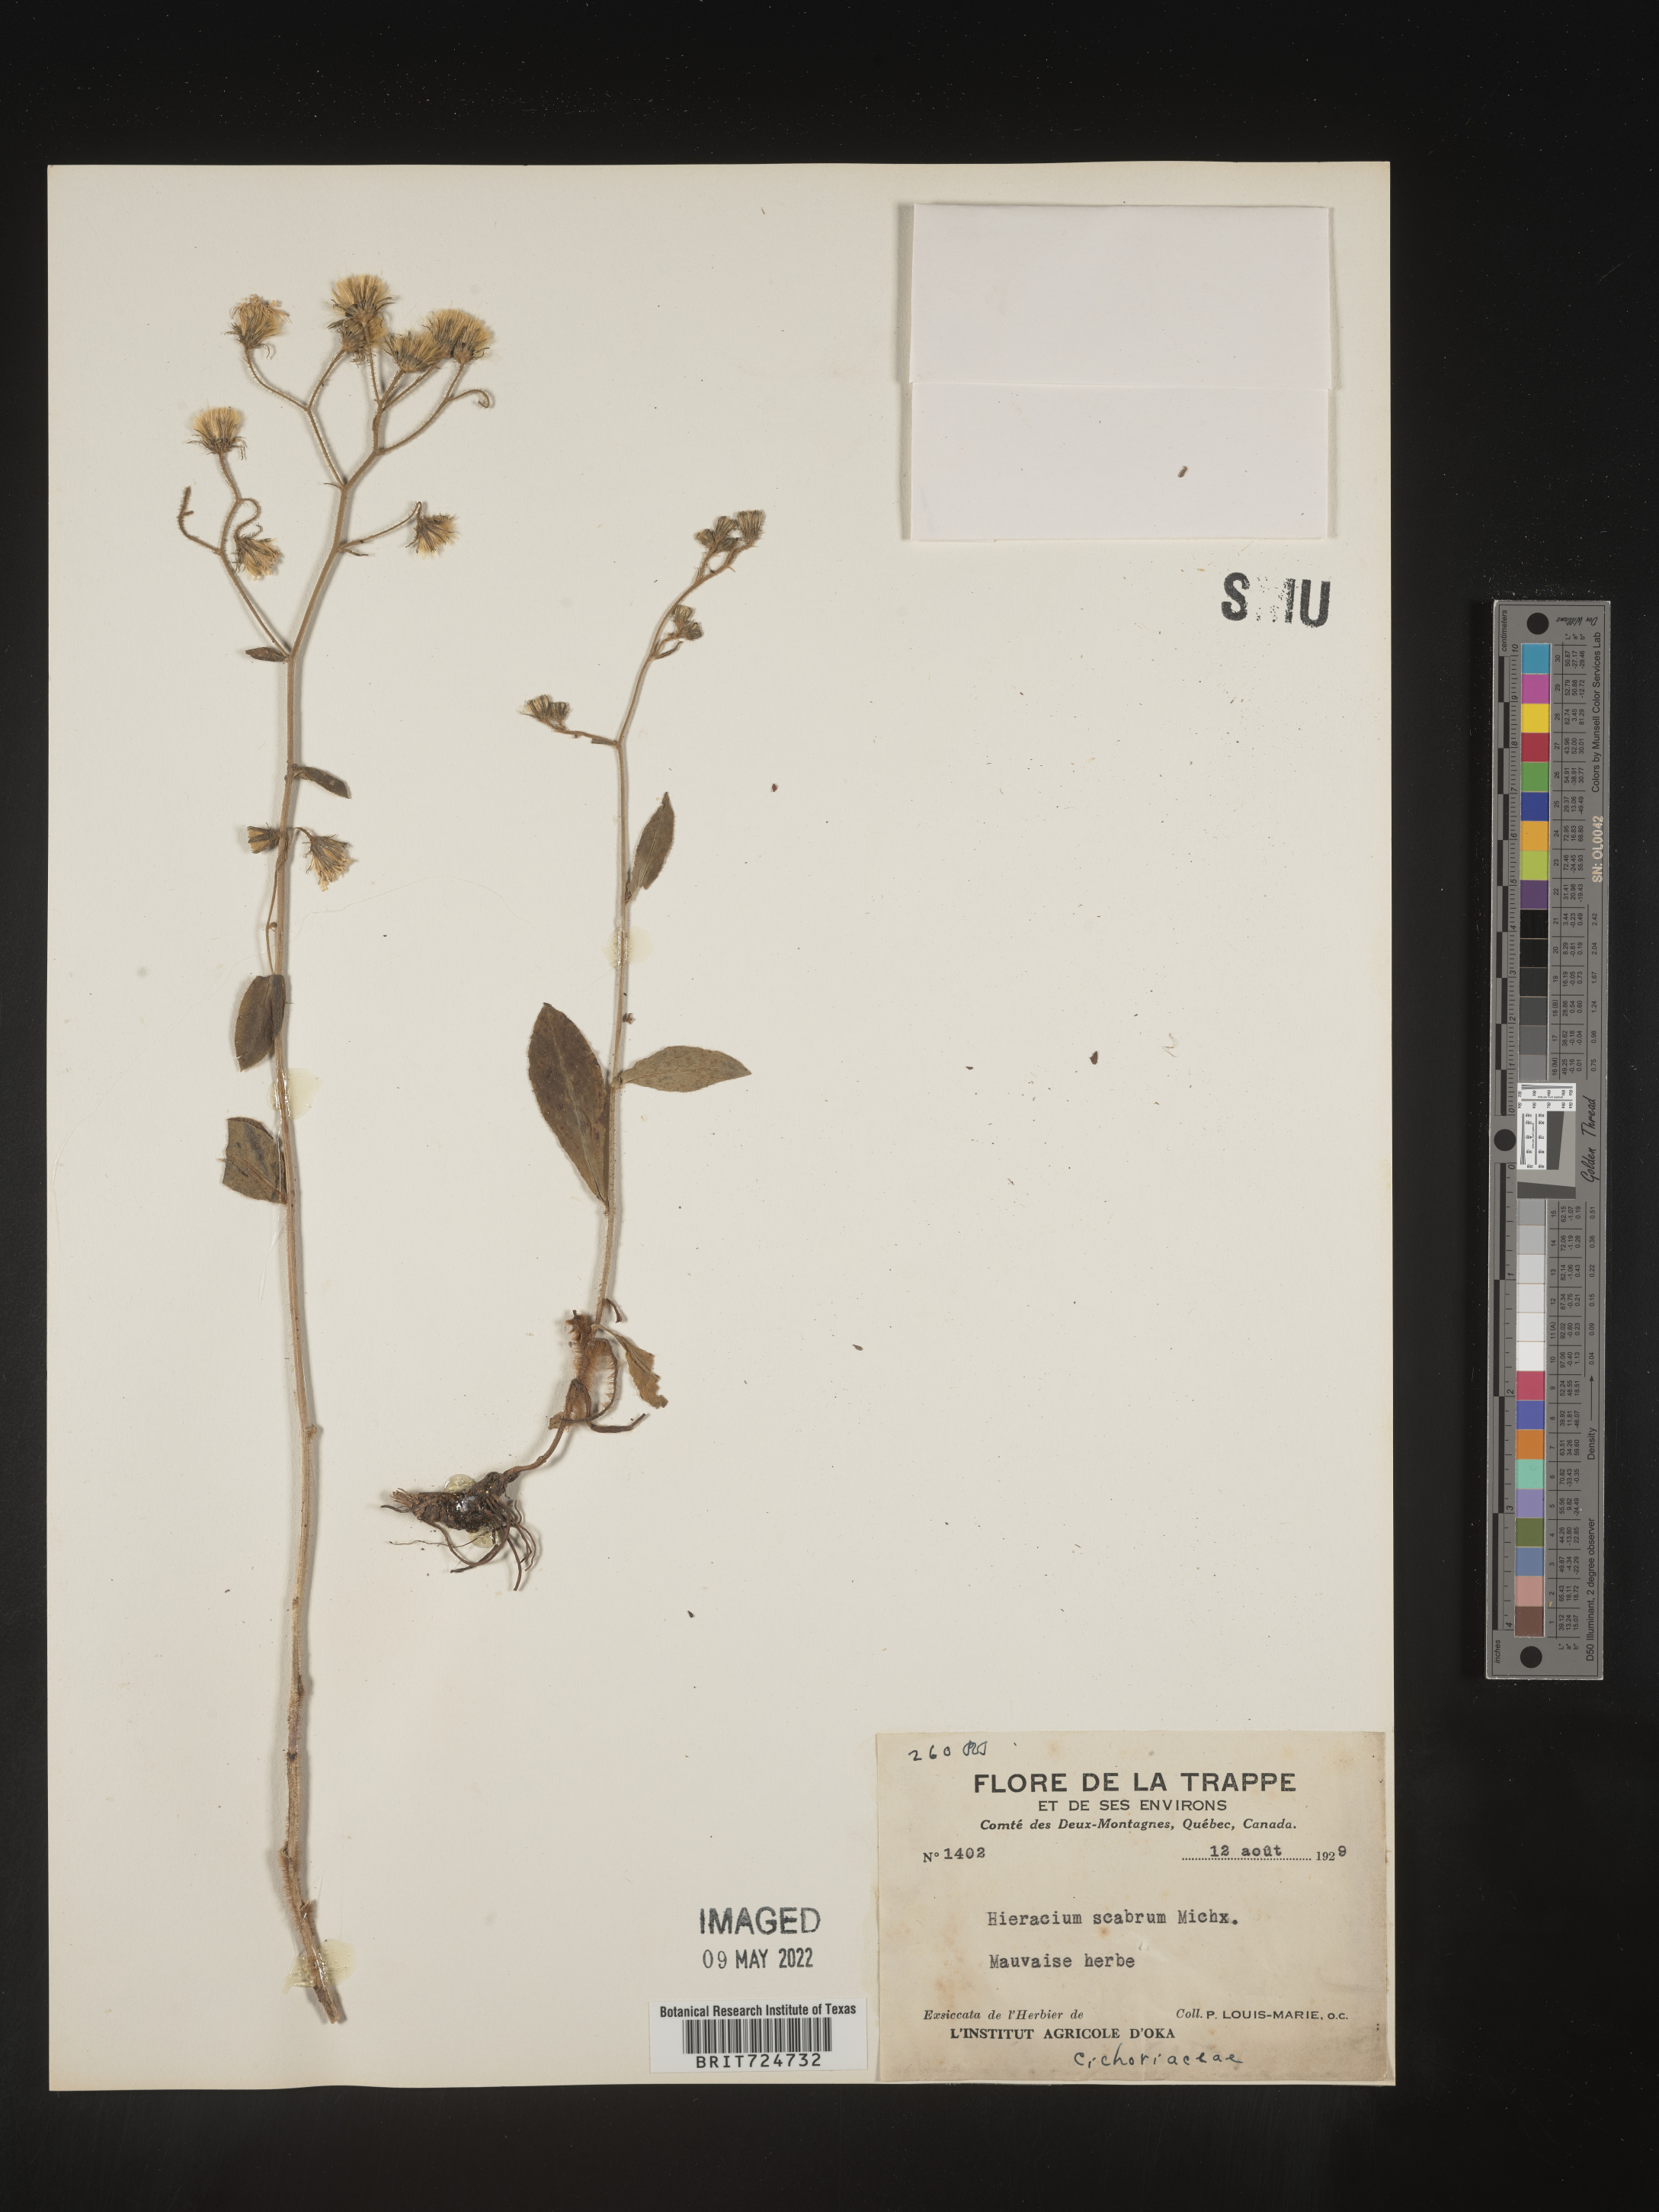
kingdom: Plantae
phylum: Tracheophyta
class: Magnoliopsida
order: Asterales
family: Asteraceae
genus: Hieracium
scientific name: Hieracium scabrum
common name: Rough hawkweed
